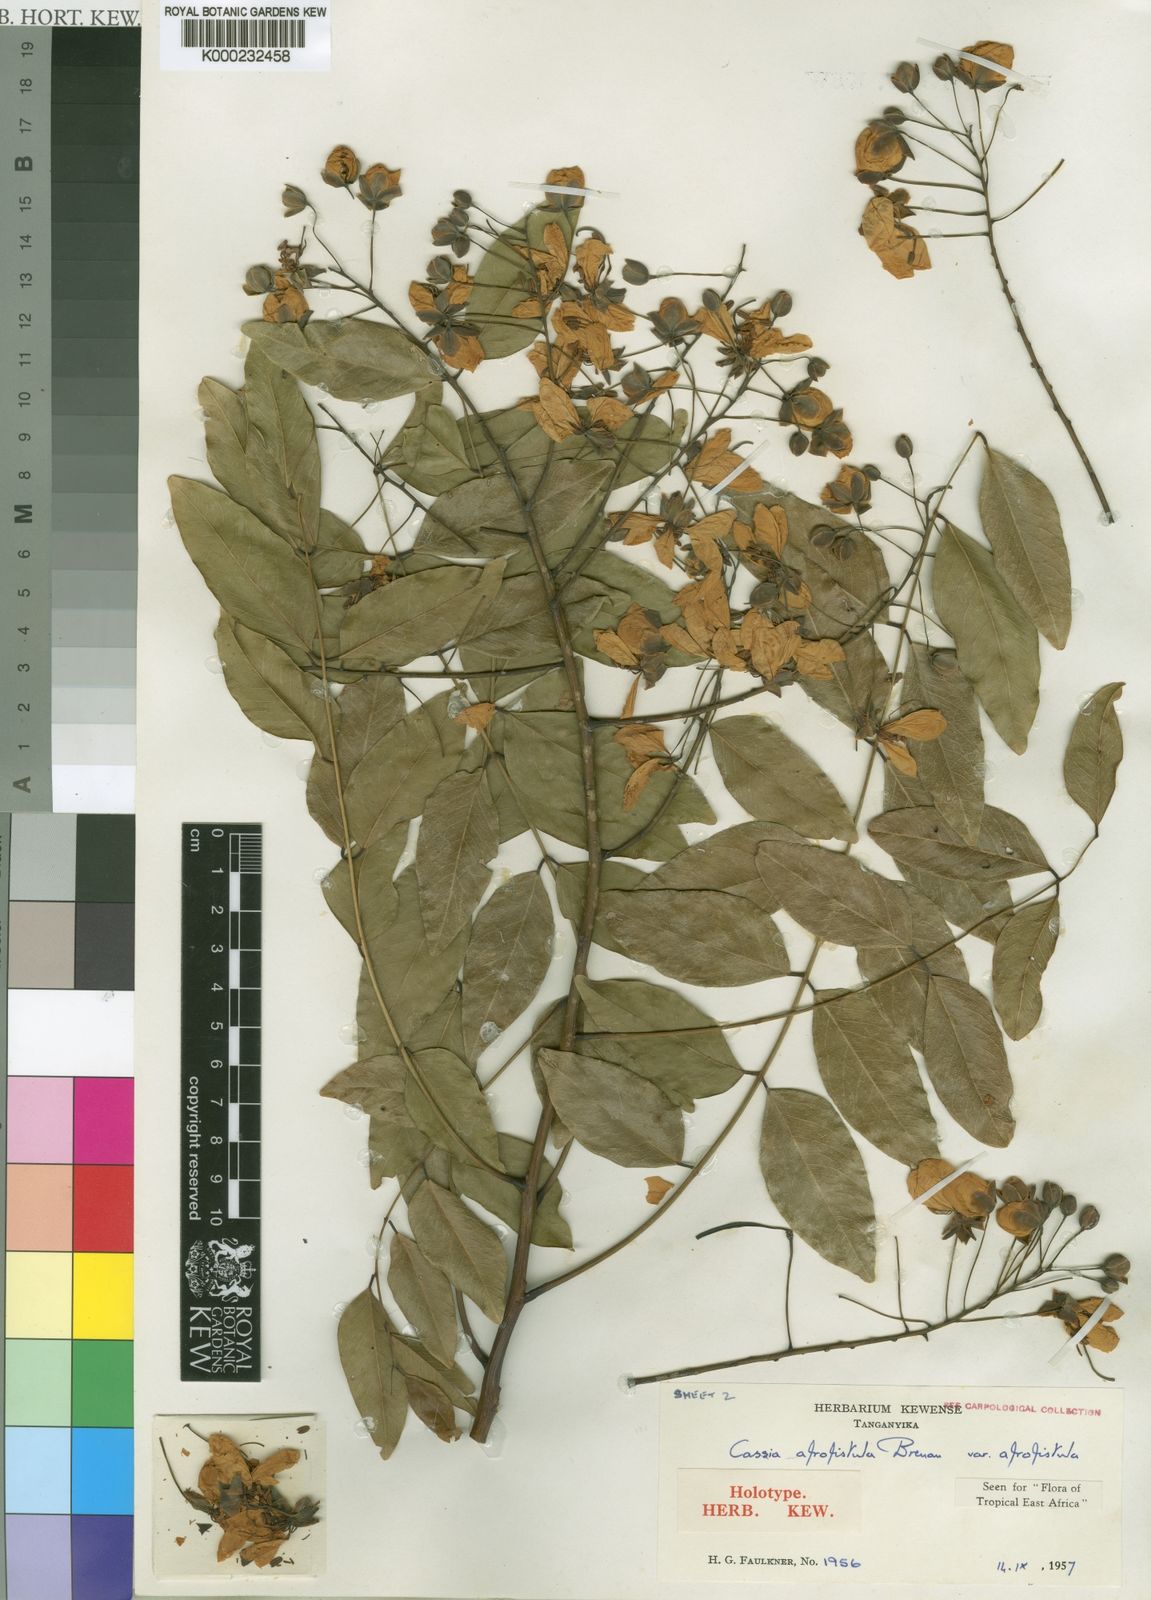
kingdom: Plantae
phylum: Tracheophyta
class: Magnoliopsida
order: Fabales
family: Fabaceae
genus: Cassia
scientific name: Cassia afrofistula
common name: Kenyan shower
